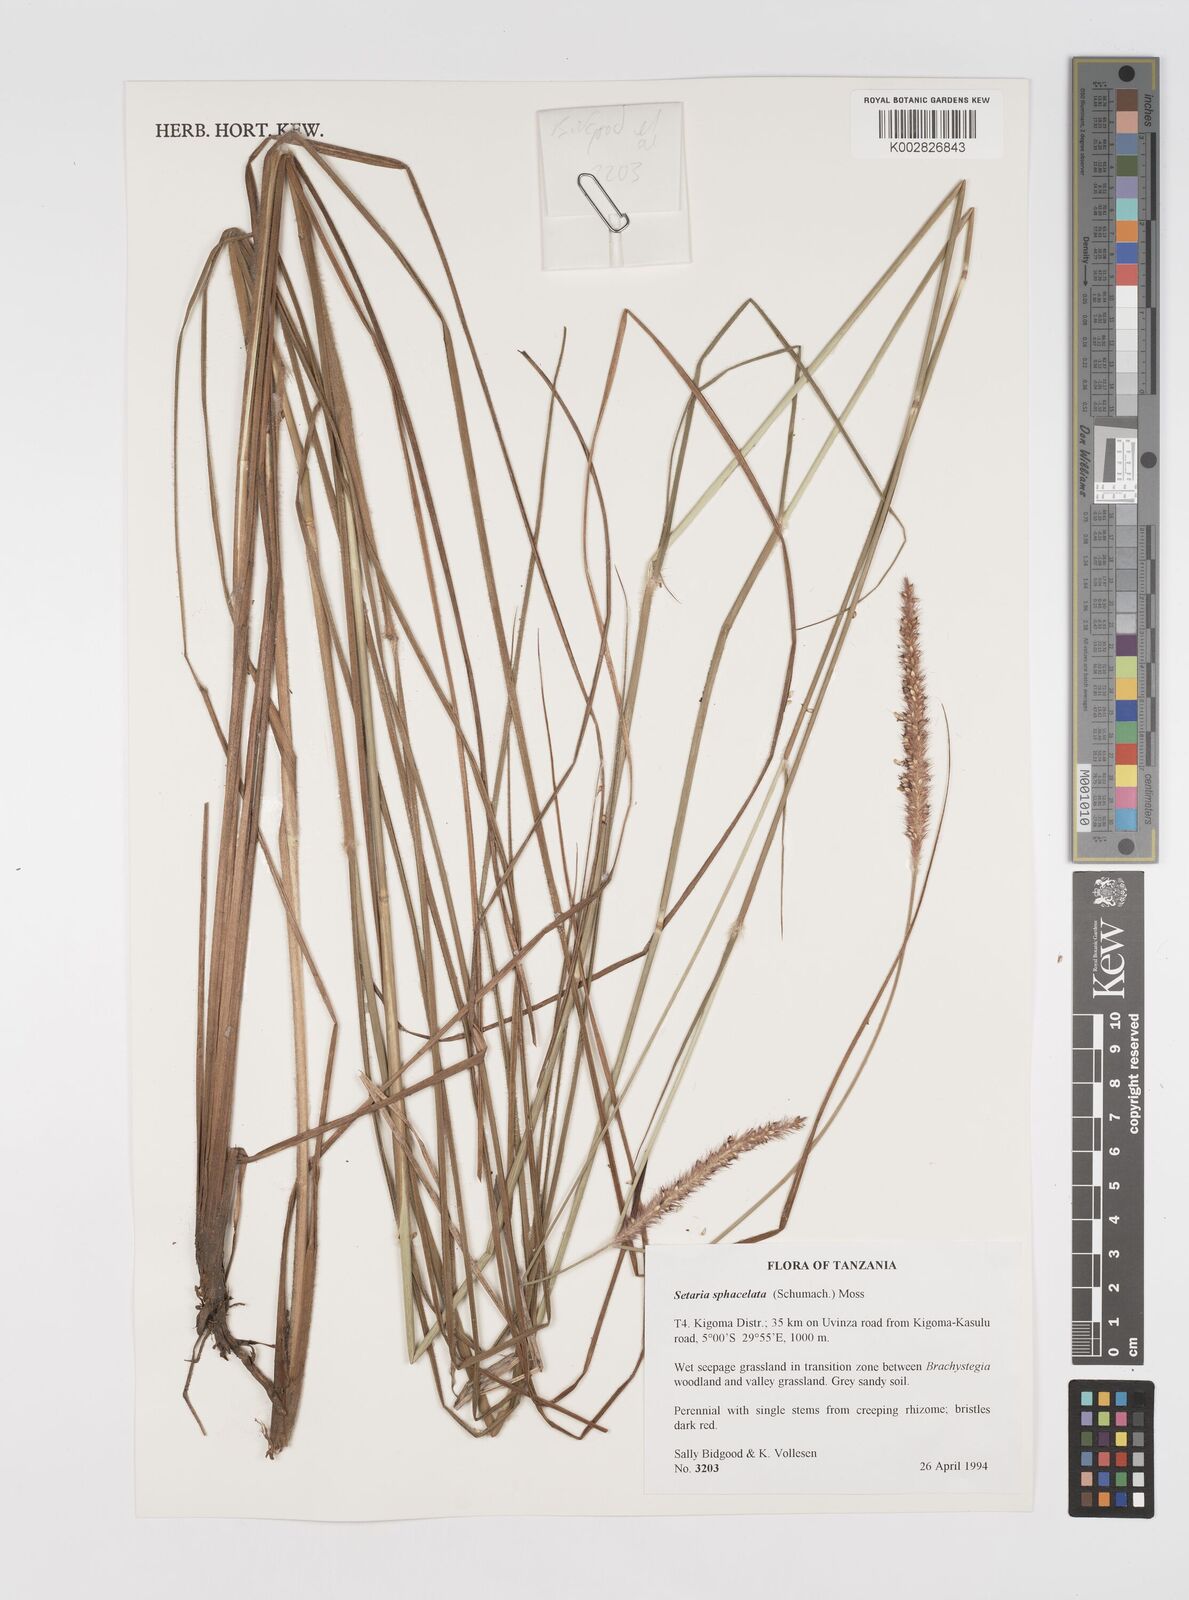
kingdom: Plantae
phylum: Tracheophyta
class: Liliopsida
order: Poales
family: Poaceae
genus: Setaria
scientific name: Setaria sphacelata
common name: African bristlegrass
